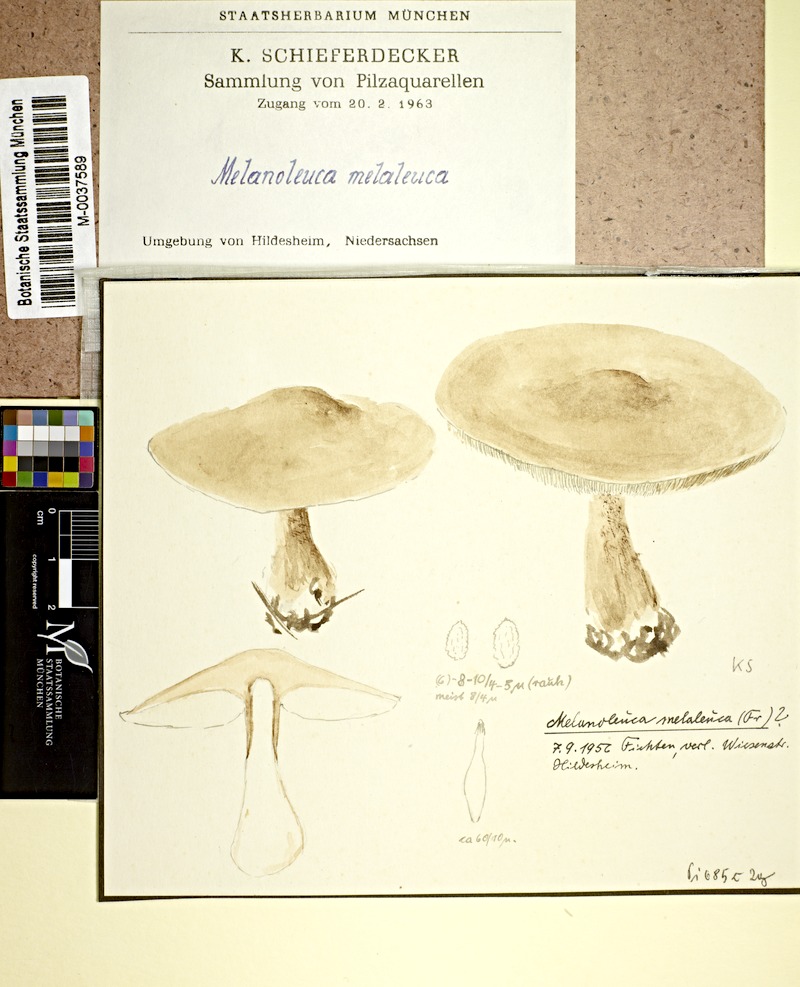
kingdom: Fungi
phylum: Basidiomycota
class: Agaricomycetes
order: Agaricales
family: Tricholomataceae
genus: Melanoleuca
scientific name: Melanoleuca melaleuca
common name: Bald cavalier
